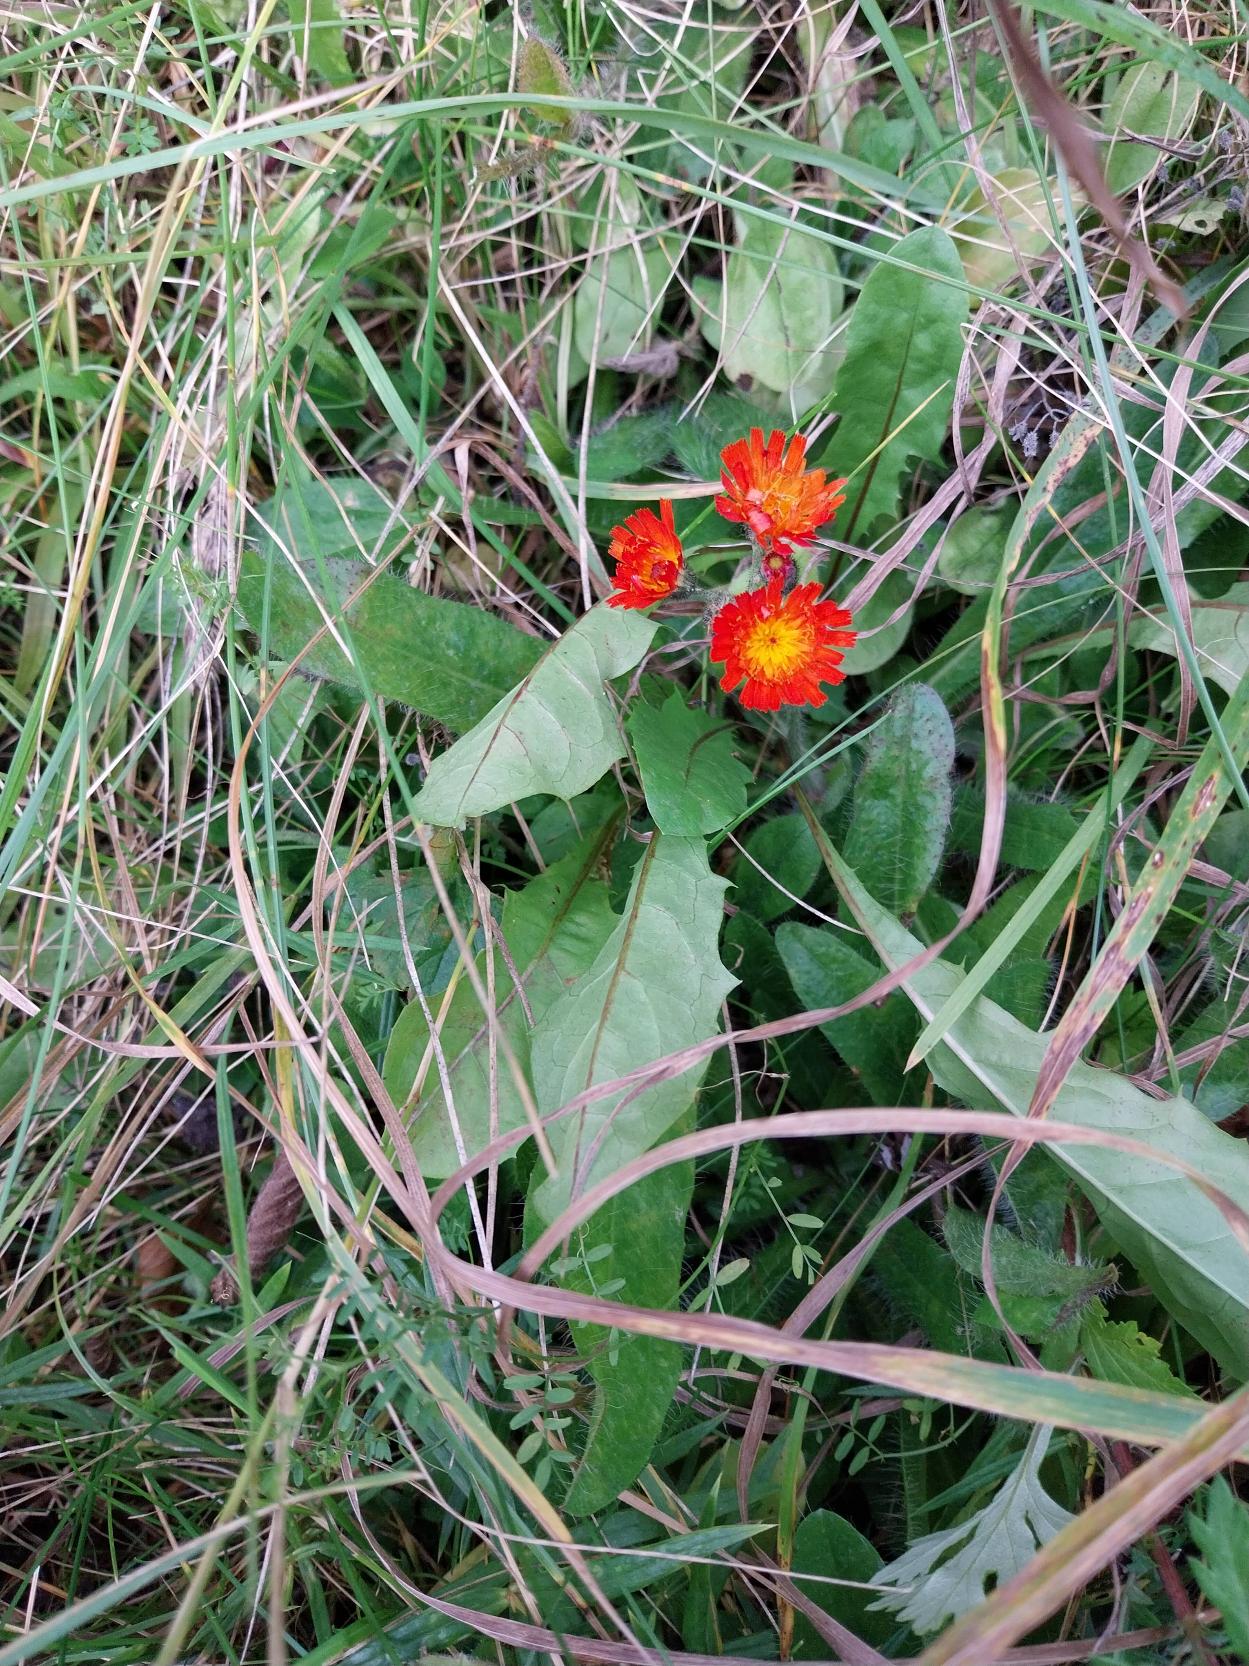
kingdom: Plantae
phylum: Tracheophyta
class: Magnoliopsida
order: Asterales
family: Asteraceae
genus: Pilosella
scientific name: Pilosella aurantiaca
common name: Pomerans-høgeurt
